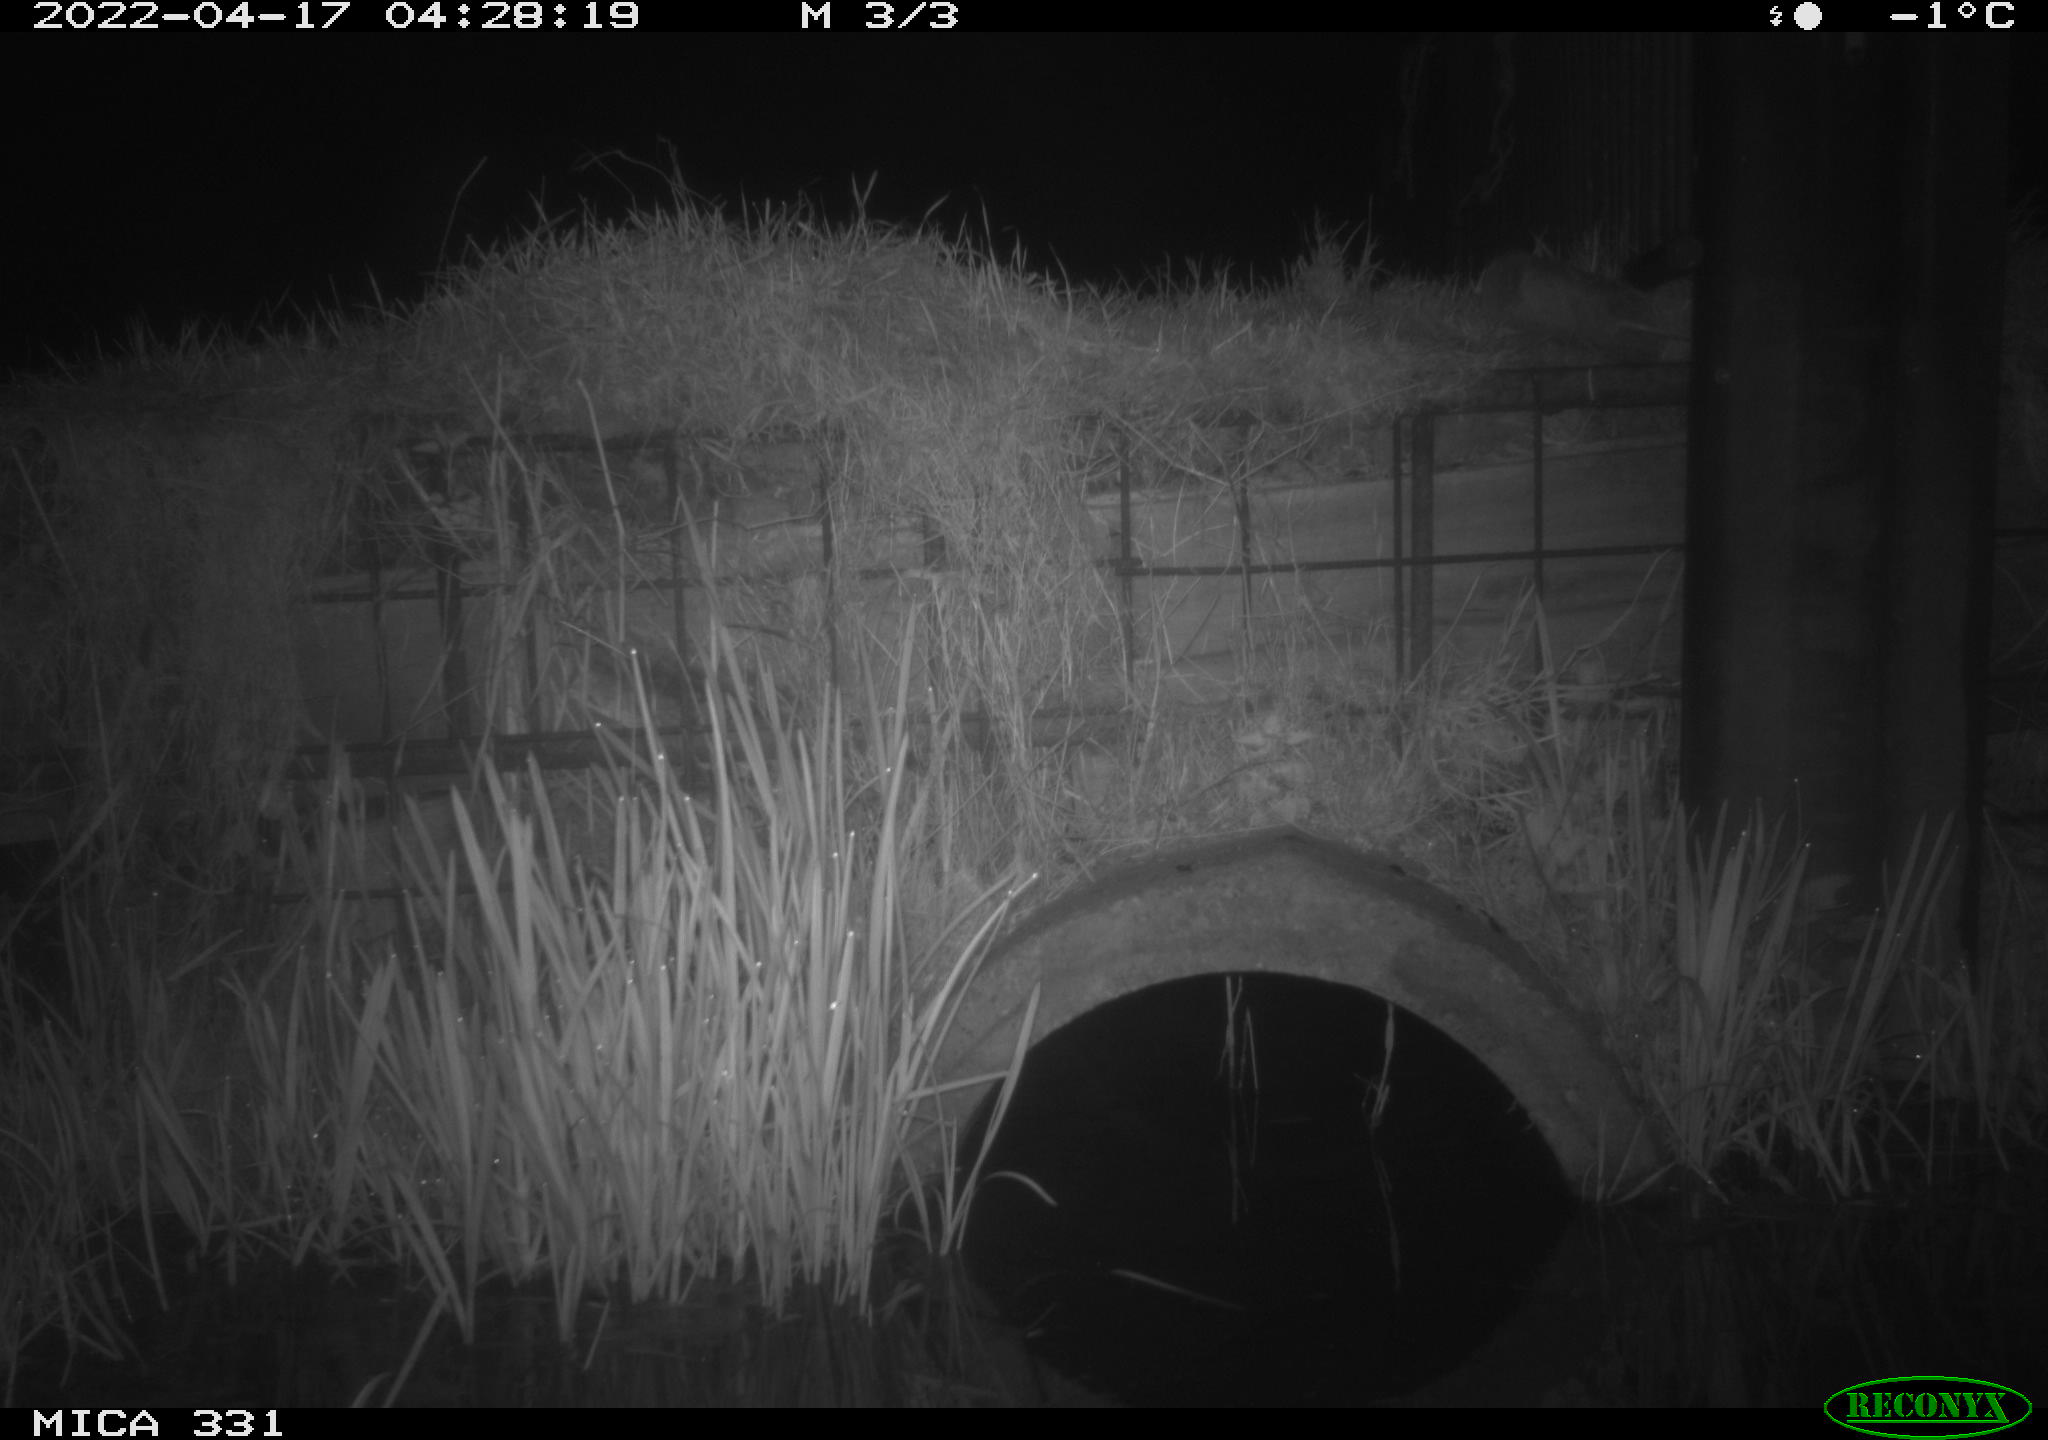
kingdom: Animalia
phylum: Chordata
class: Mammalia
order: Rodentia
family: Muridae
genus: Rattus
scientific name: Rattus norvegicus
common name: Brown rat
